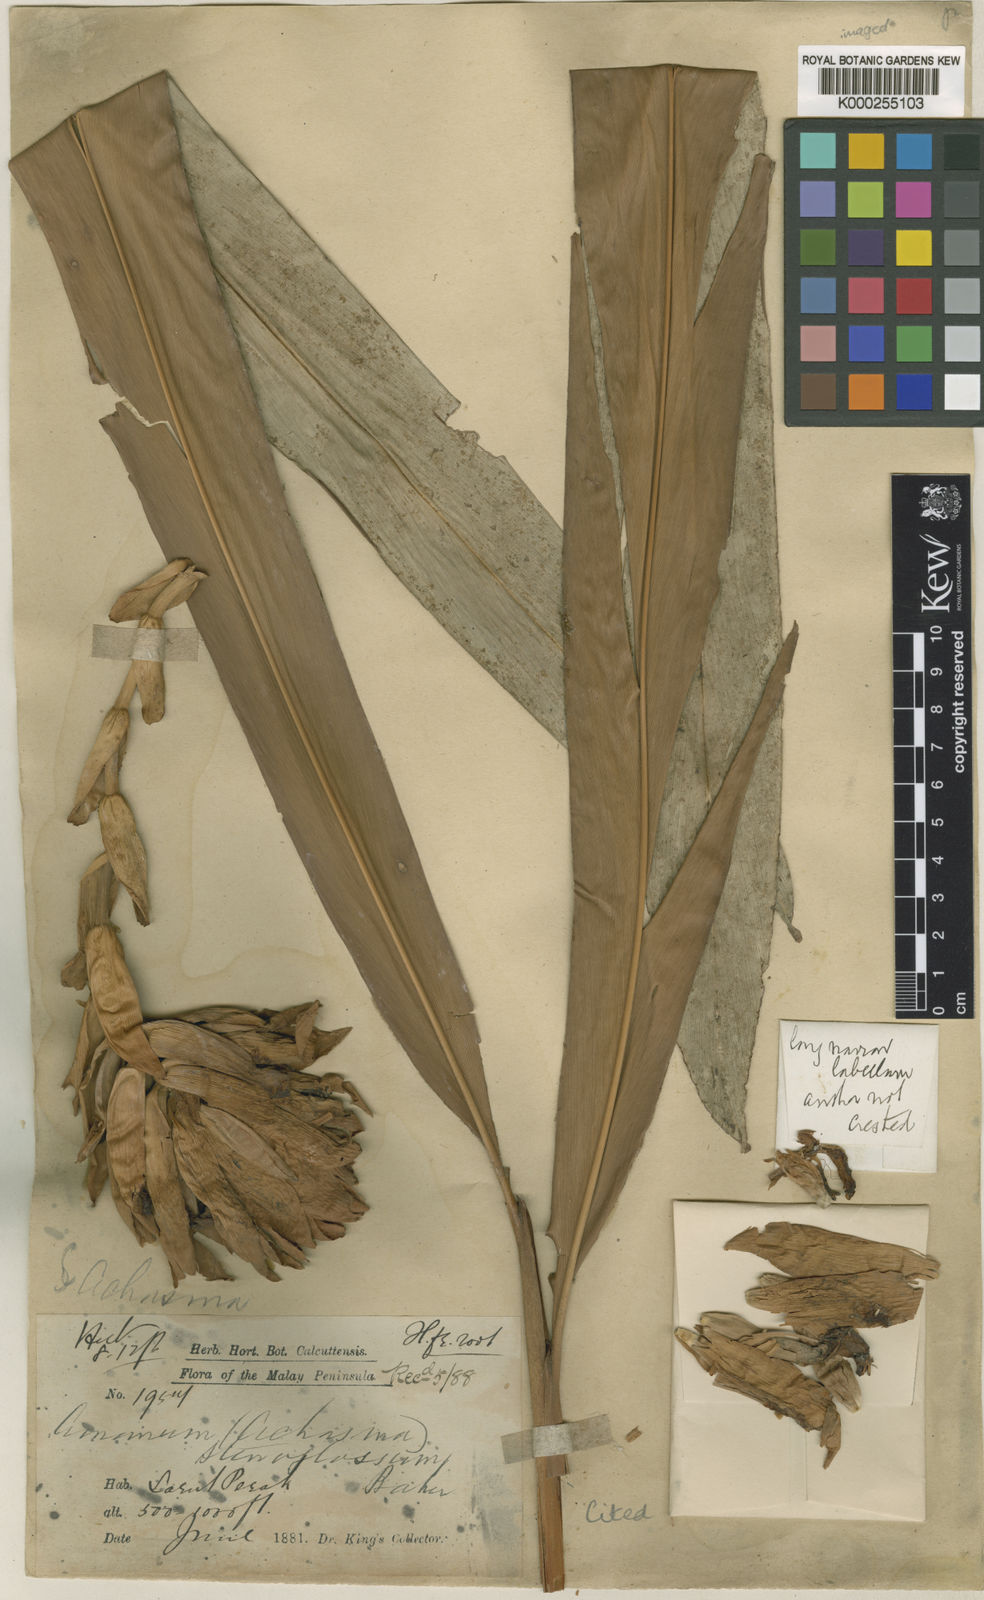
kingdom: Plantae
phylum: Tracheophyta
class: Liliopsida
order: Zingiberales
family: Zingiberaceae
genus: Conamomum
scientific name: Conamomum xanthophlebium
